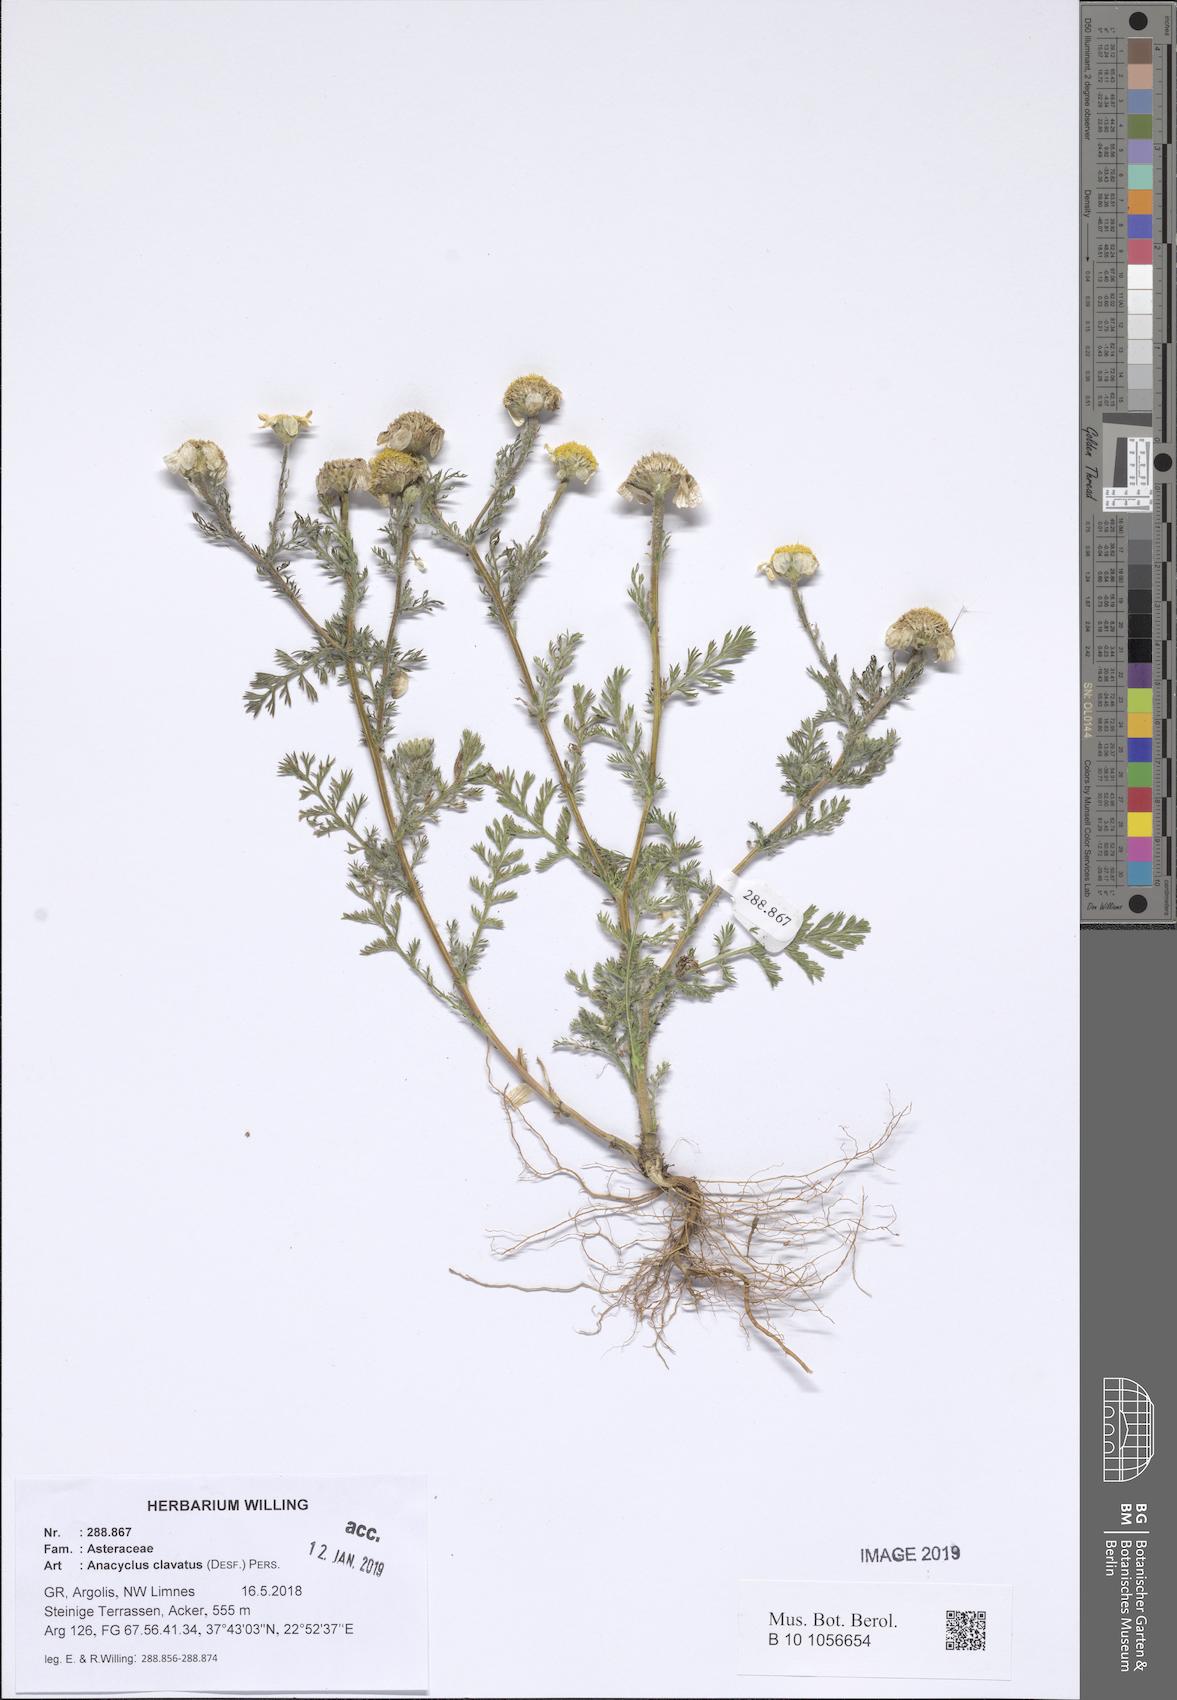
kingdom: Plantae
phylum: Tracheophyta
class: Magnoliopsida
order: Asterales
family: Asteraceae
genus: Anacyclus
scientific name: Anacyclus clavatus
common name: Whitebuttons
